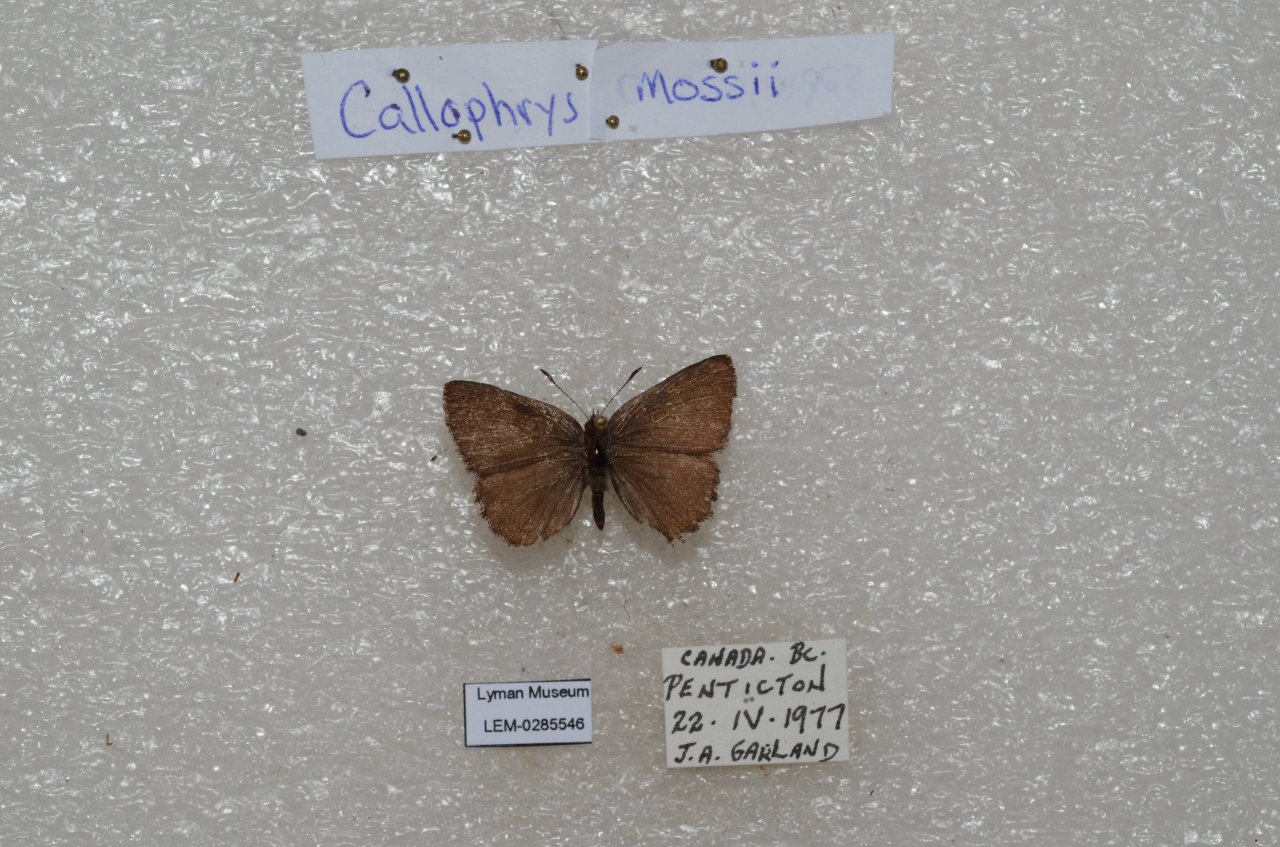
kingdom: Animalia
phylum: Arthropoda
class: Insecta
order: Lepidoptera
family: Lycaenidae
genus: Callophrys
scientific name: Callophrys mossii
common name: Moss' Elfin
